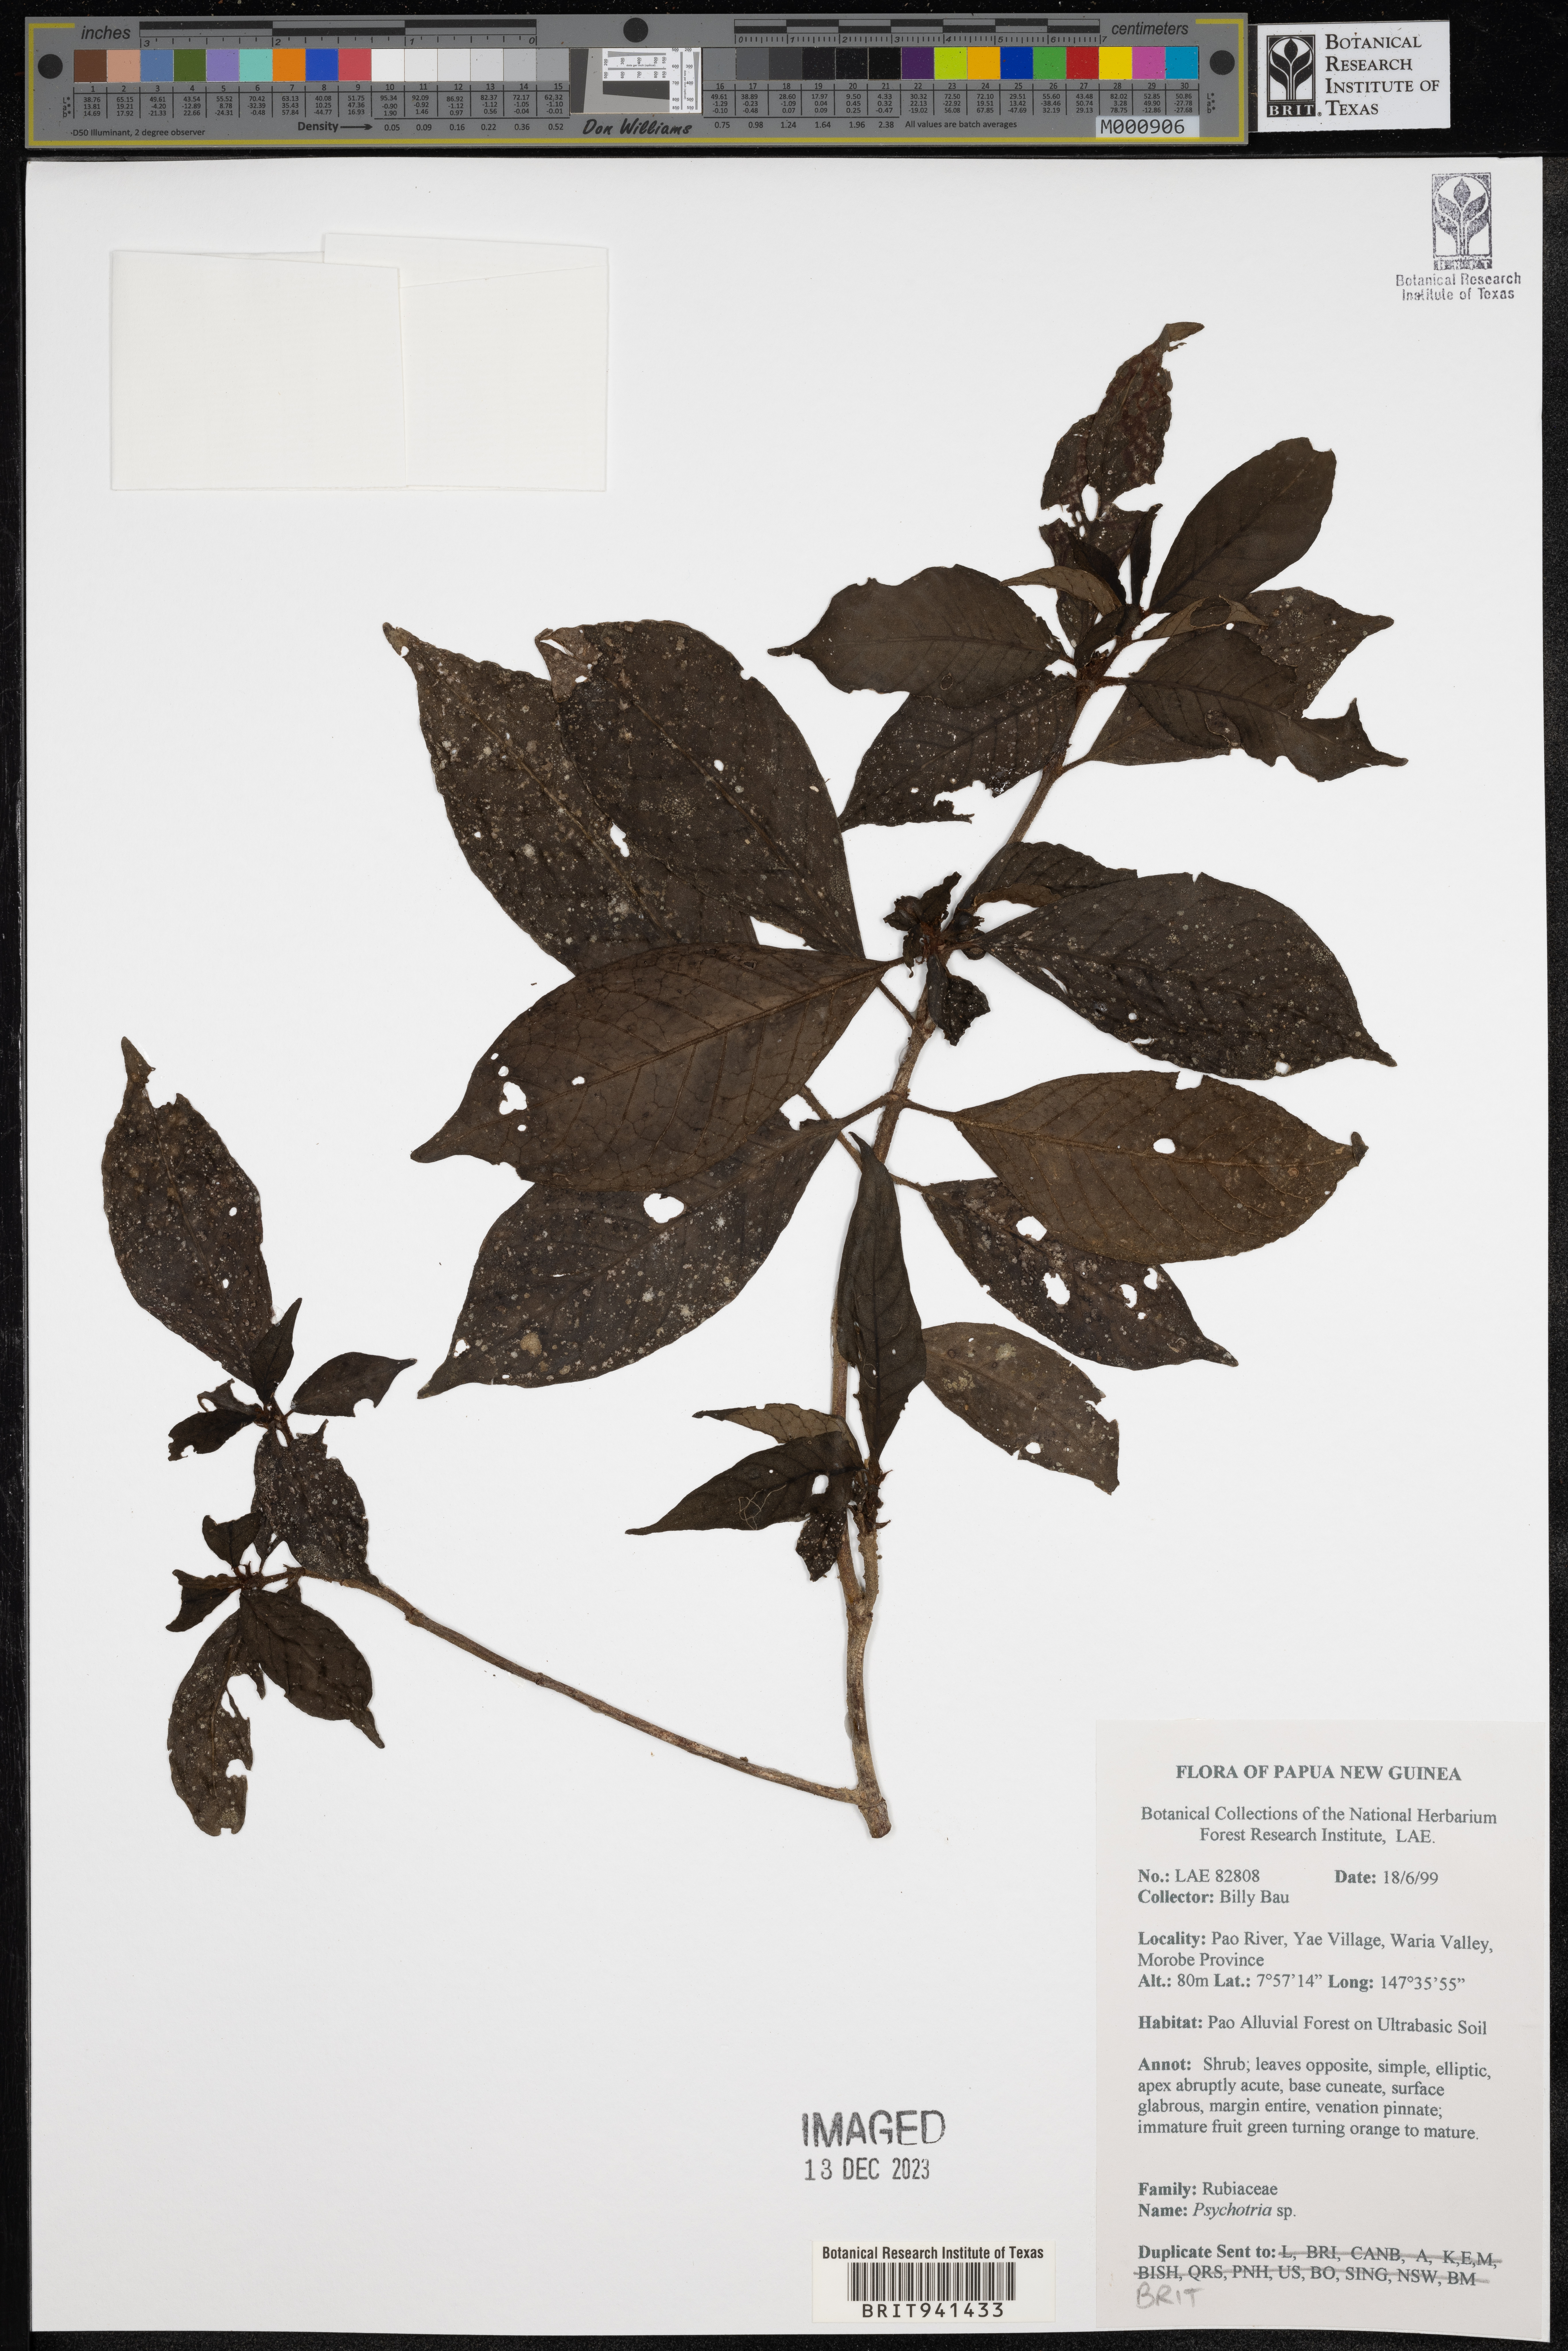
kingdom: Plantae
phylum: Tracheophyta
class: Magnoliopsida
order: Gentianales
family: Rubiaceae
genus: Psychotria
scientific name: Psychotria
